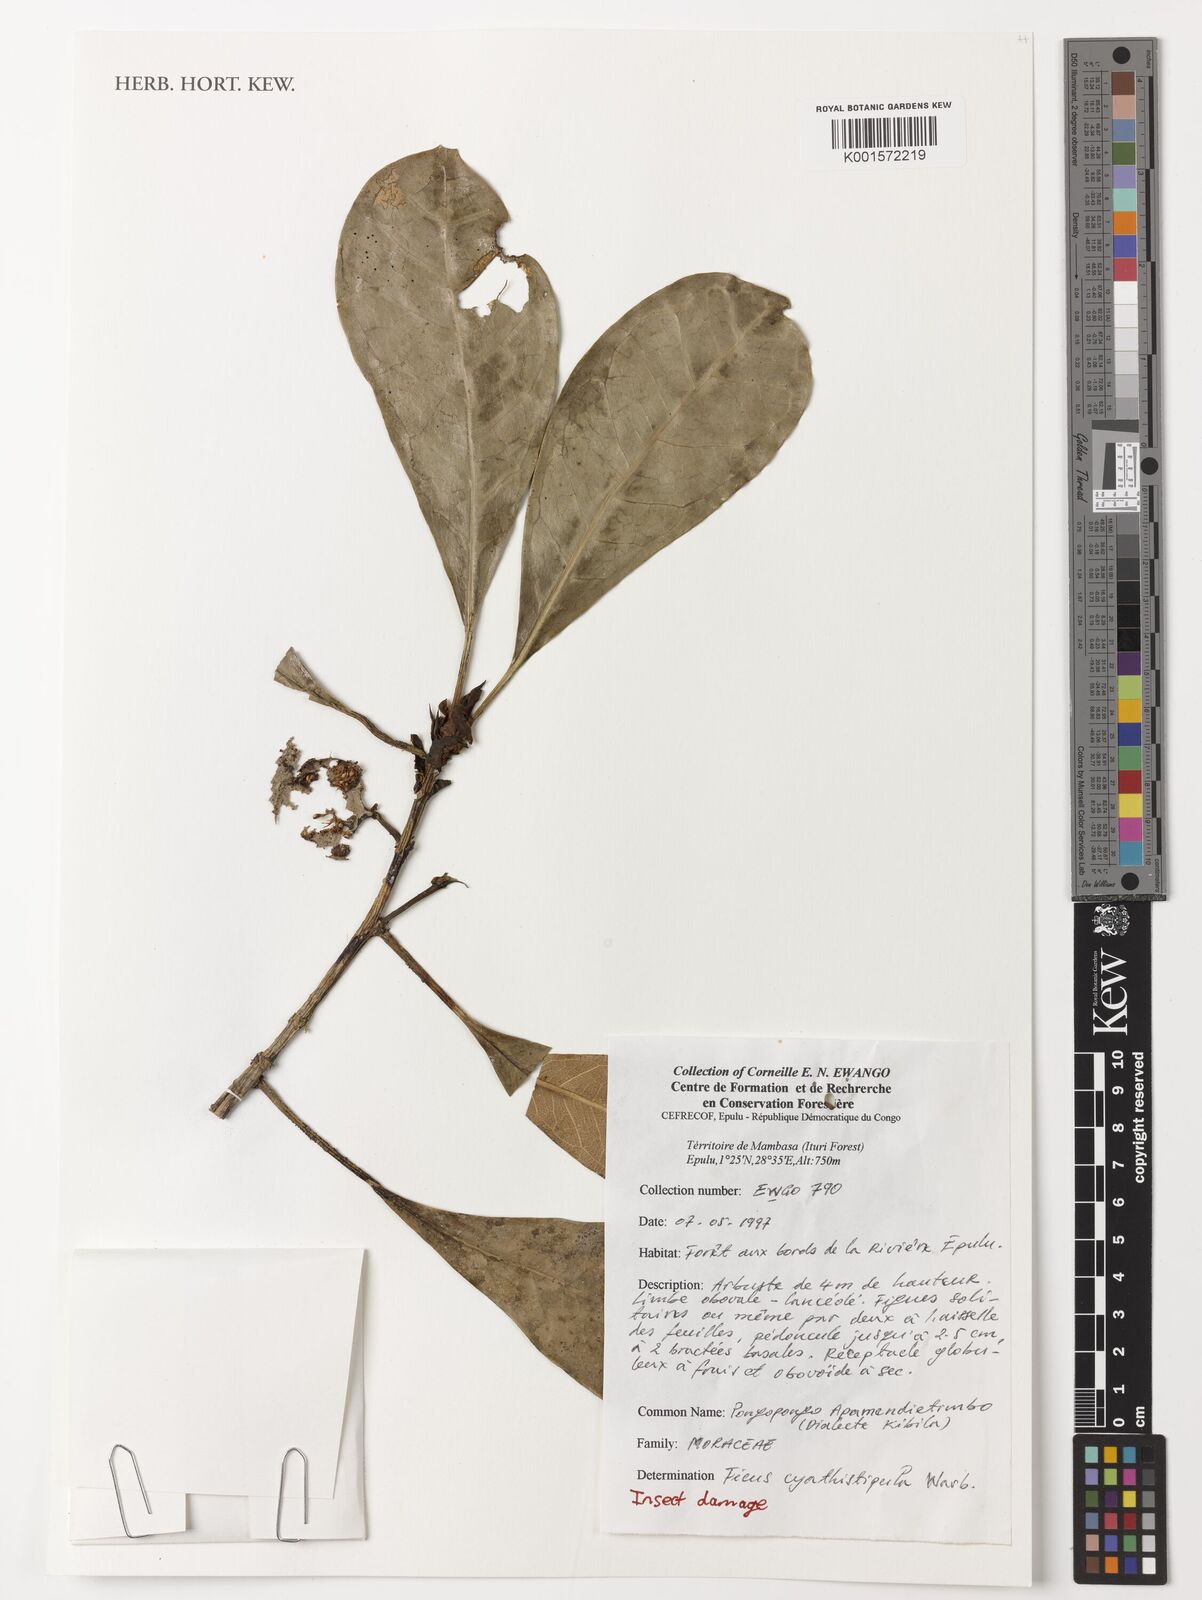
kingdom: Plantae
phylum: Tracheophyta
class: Magnoliopsida
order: Rosales
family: Moraceae
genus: Ficus
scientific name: Ficus cyathistipula
